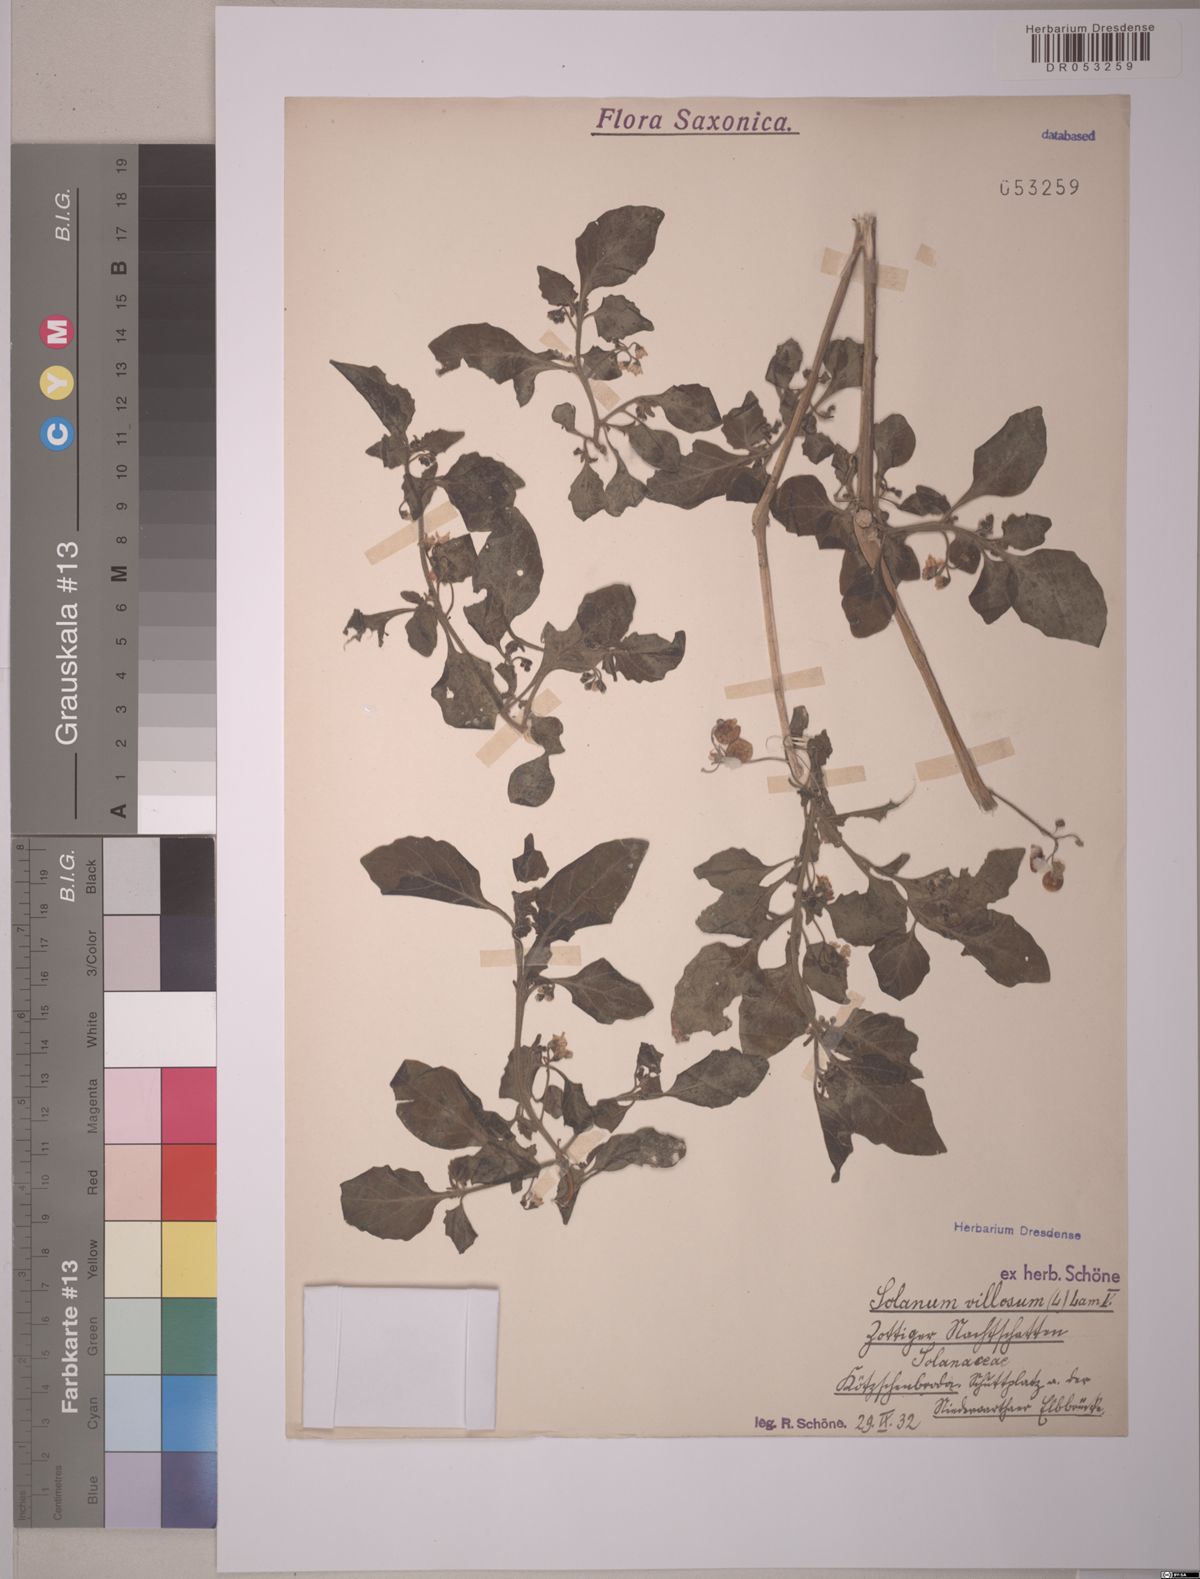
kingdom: Plantae
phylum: Tracheophyta
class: Magnoliopsida
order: Solanales
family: Solanaceae
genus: Solanum
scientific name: Solanum villosum
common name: Red nightshade
